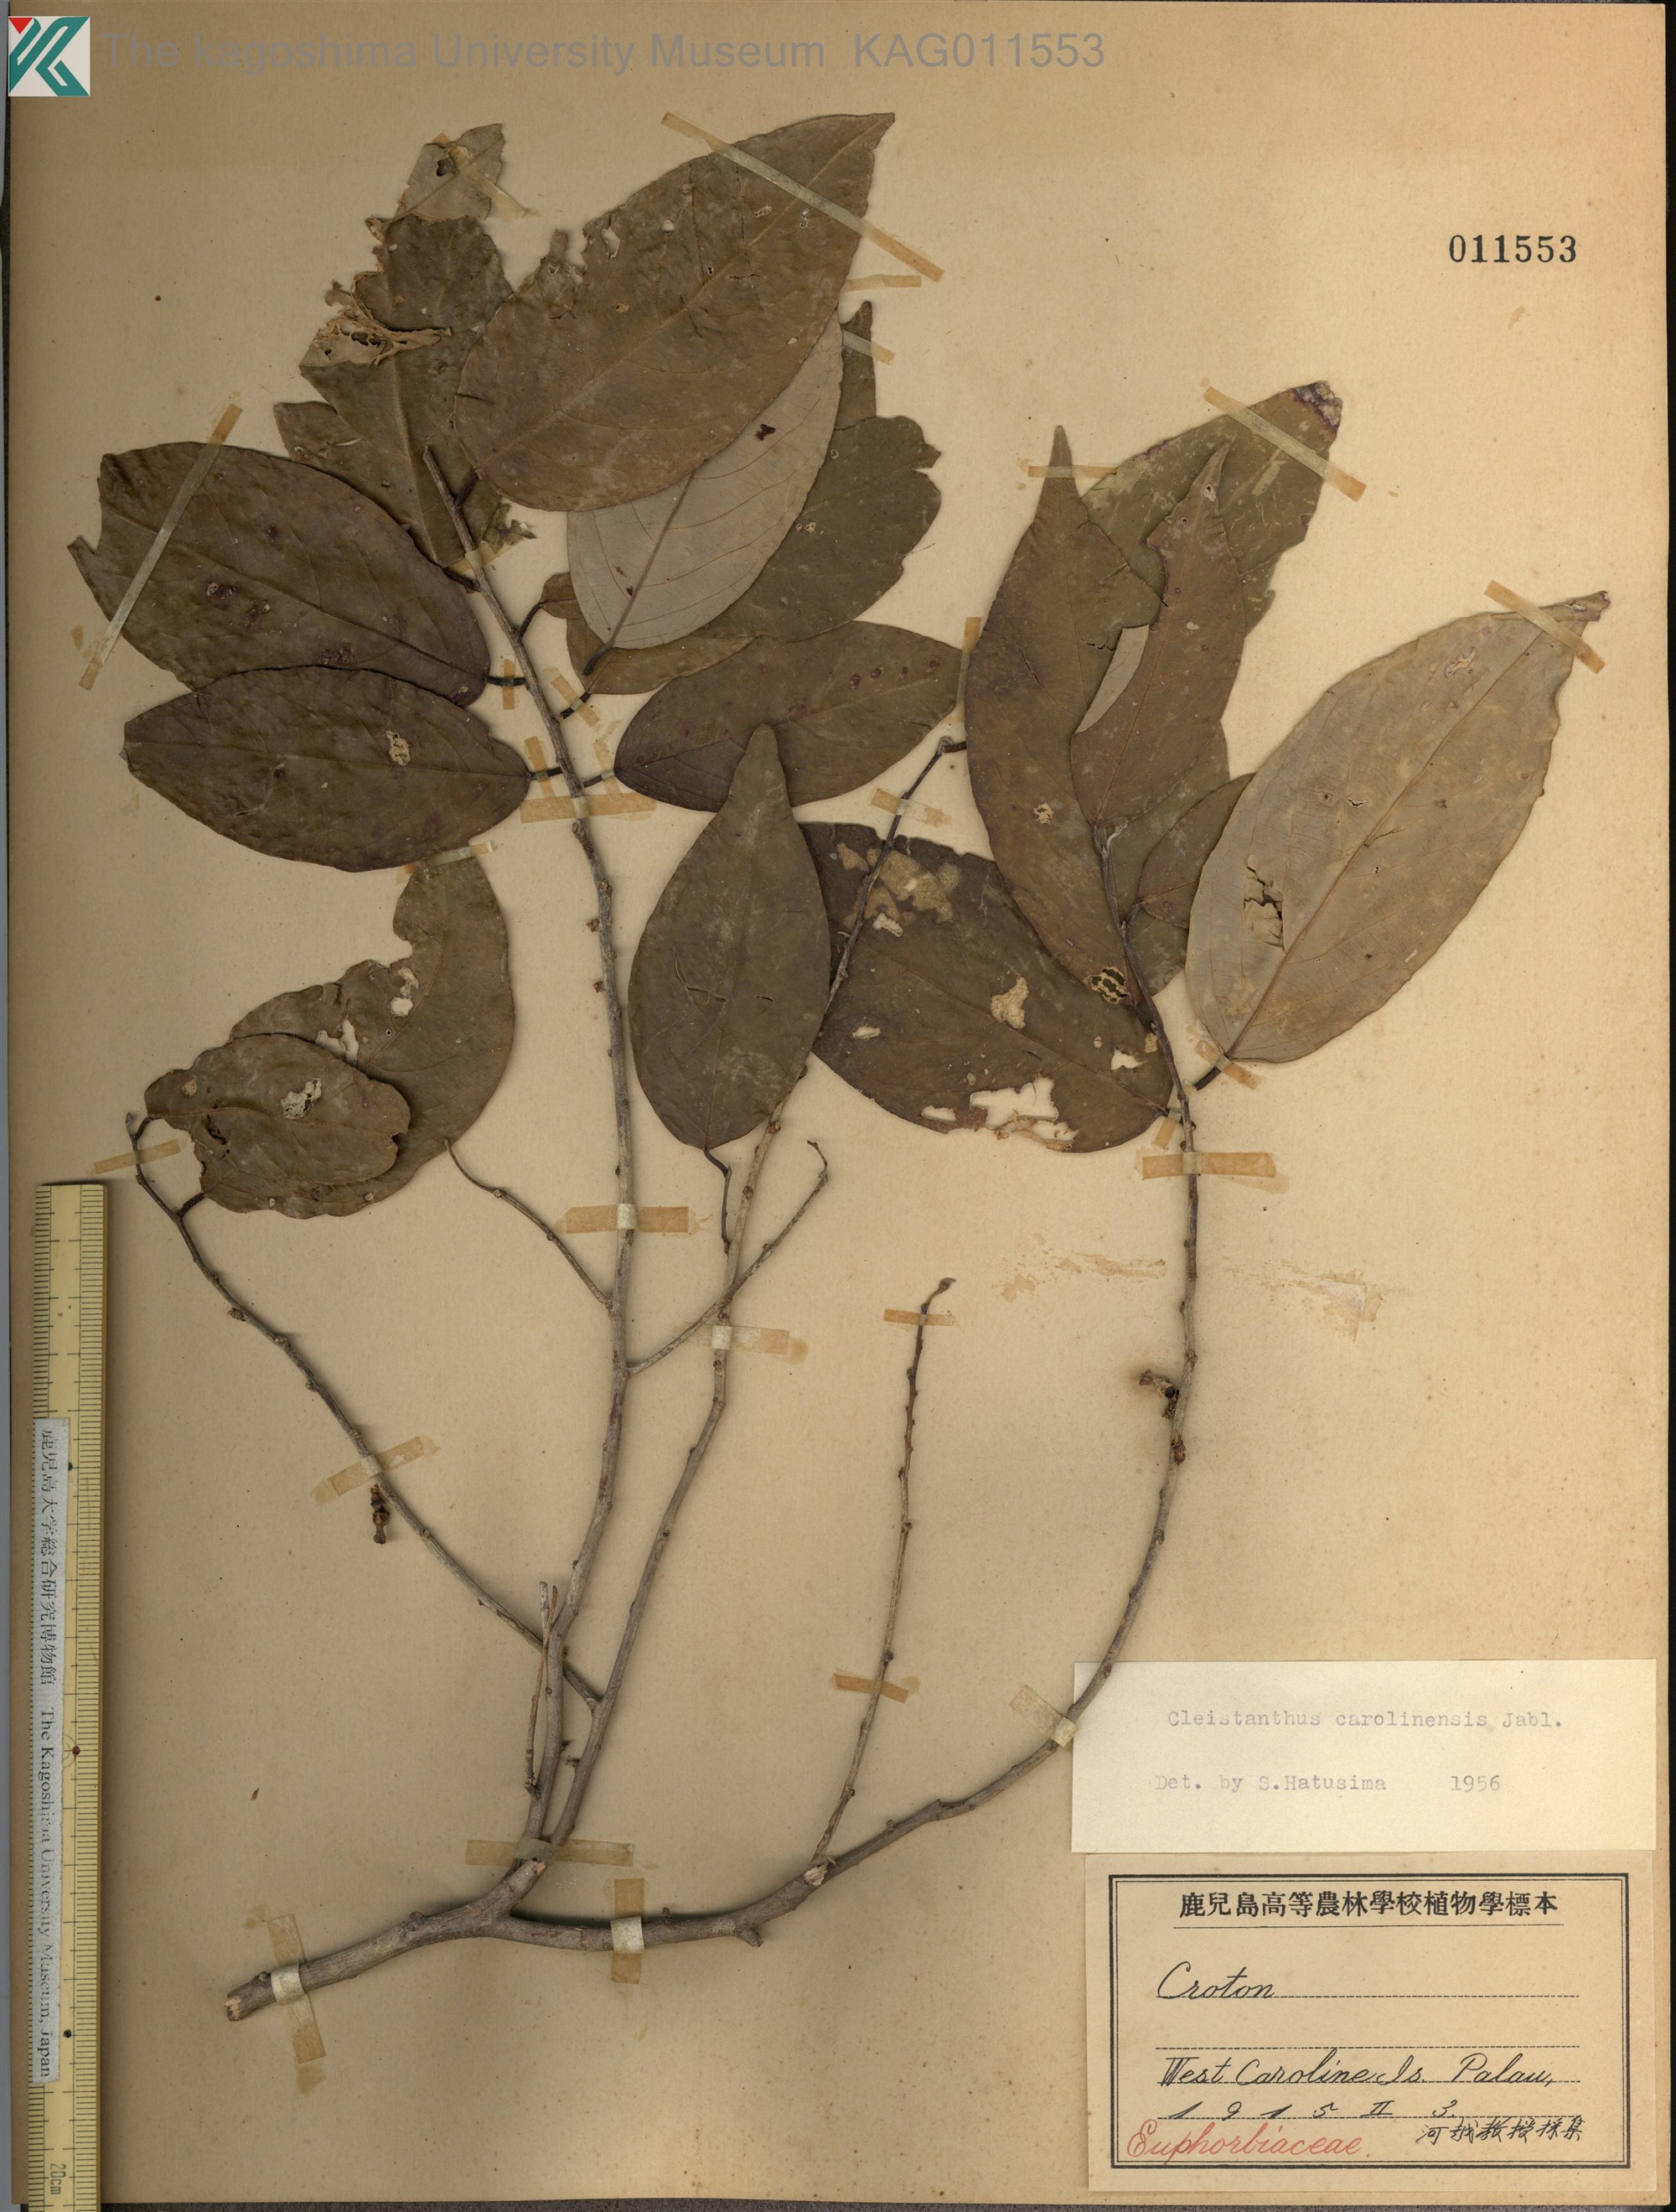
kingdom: Plantae
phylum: Tracheophyta
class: Magnoliopsida
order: Malpighiales
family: Phyllanthaceae
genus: Cleistanthus
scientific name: Cleistanthus
